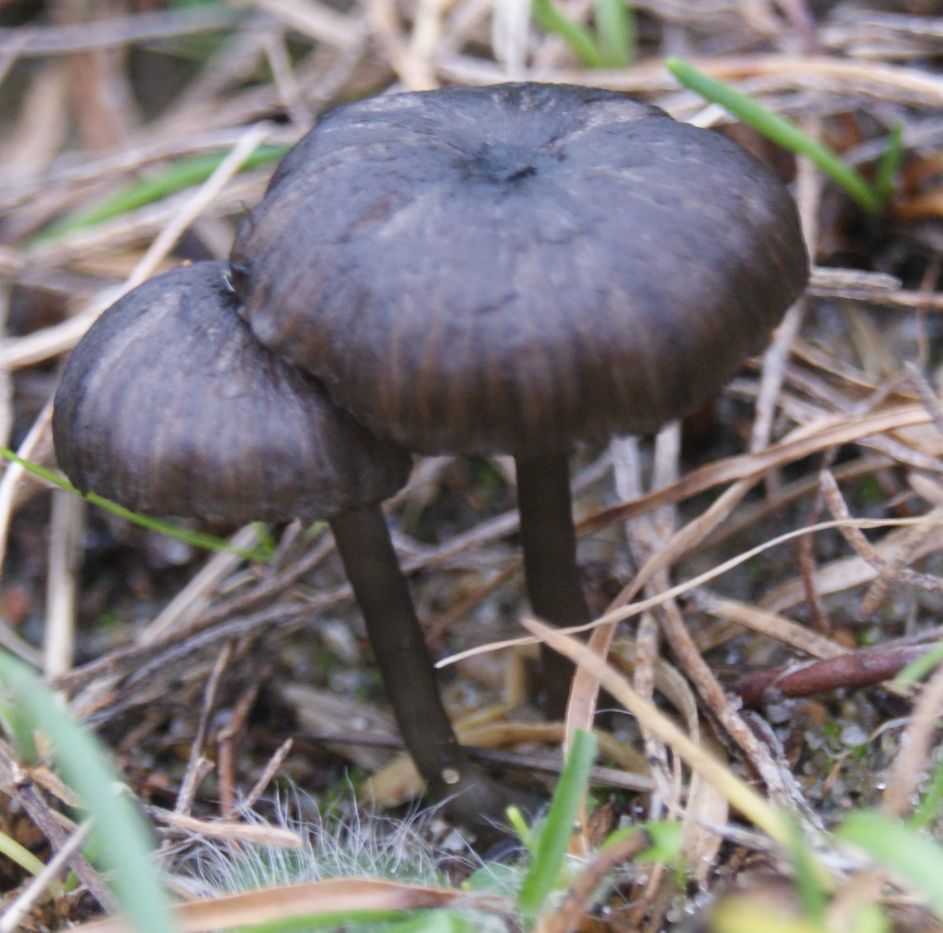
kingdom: Fungi
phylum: Basidiomycota
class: Agaricomycetes
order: Agaricales
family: Entolomataceae
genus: Entoloma
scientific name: Entoloma chalybeum
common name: blåbladet rødblad
